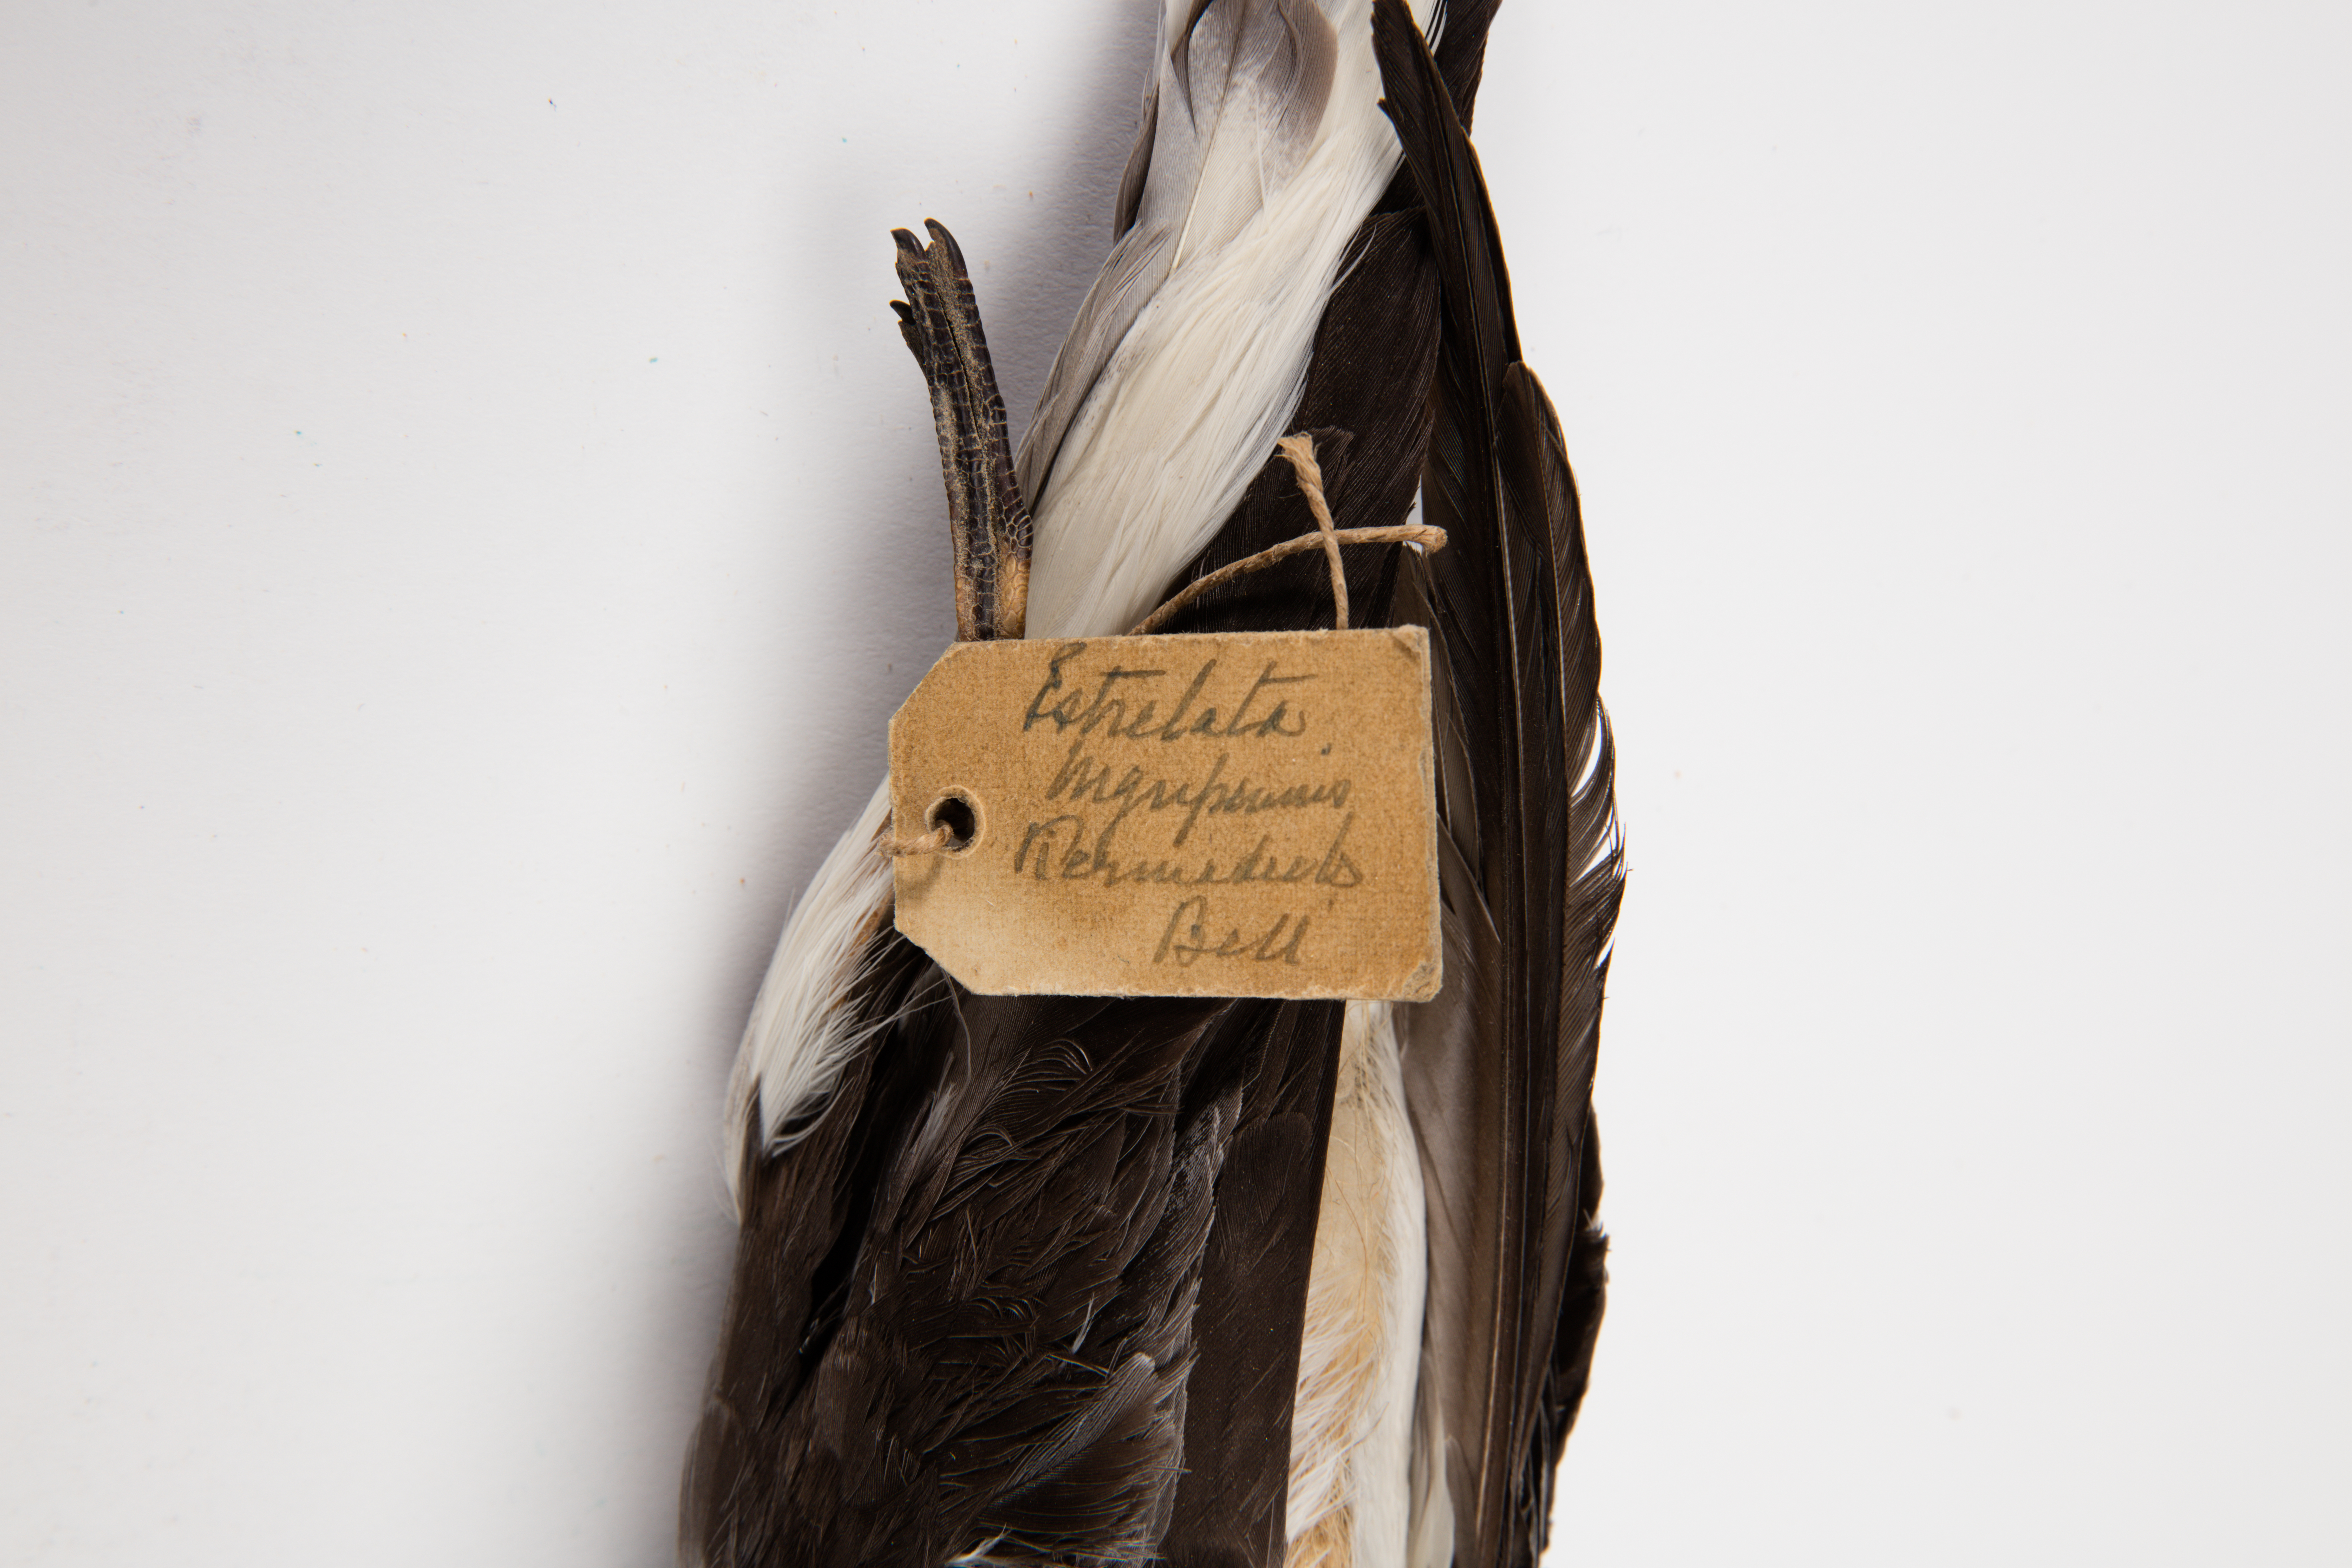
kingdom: Animalia
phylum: Chordata
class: Aves
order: Procellariiformes
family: Procellariidae
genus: Pterodroma
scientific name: Pterodroma nigripennis
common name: Black-winged petrel
